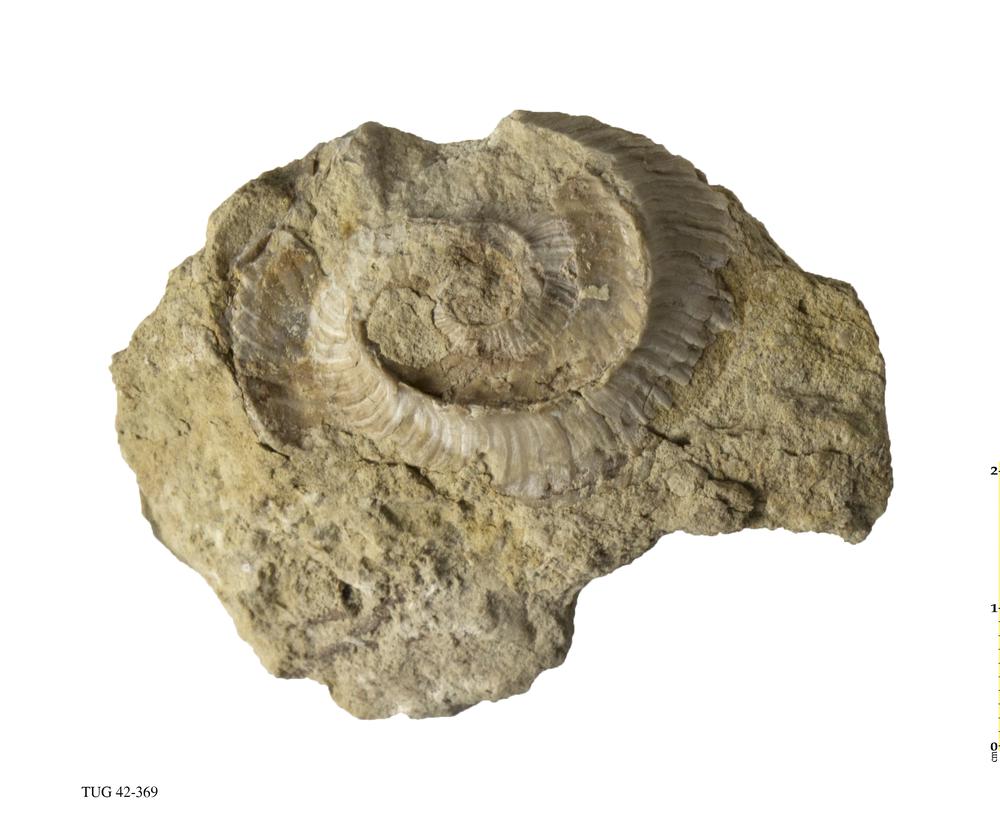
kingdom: Animalia
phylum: Mollusca
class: Cephalopoda
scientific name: Cephalopoda
